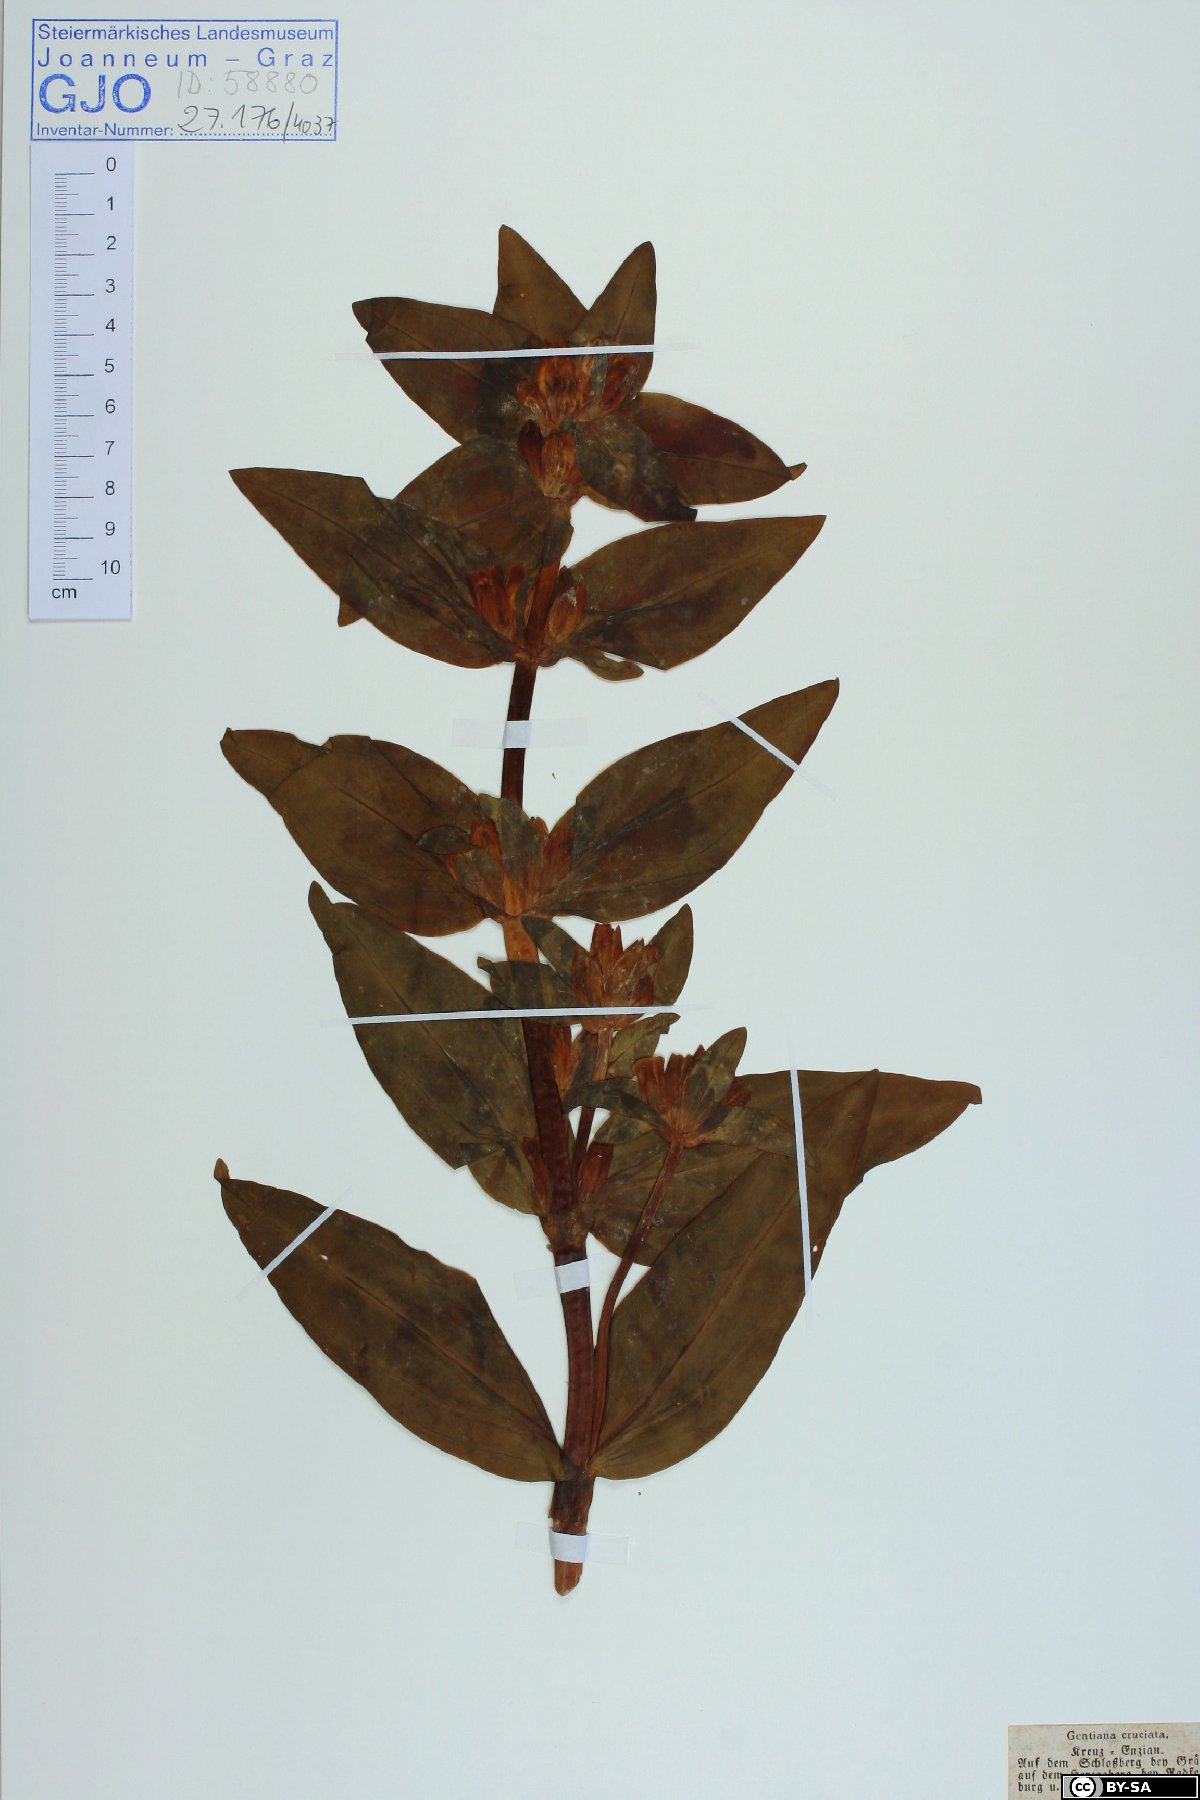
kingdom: Plantae
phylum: Tracheophyta
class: Magnoliopsida
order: Gentianales
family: Gentianaceae
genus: Gentiana
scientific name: Gentiana cruciata
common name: Cross gentian
